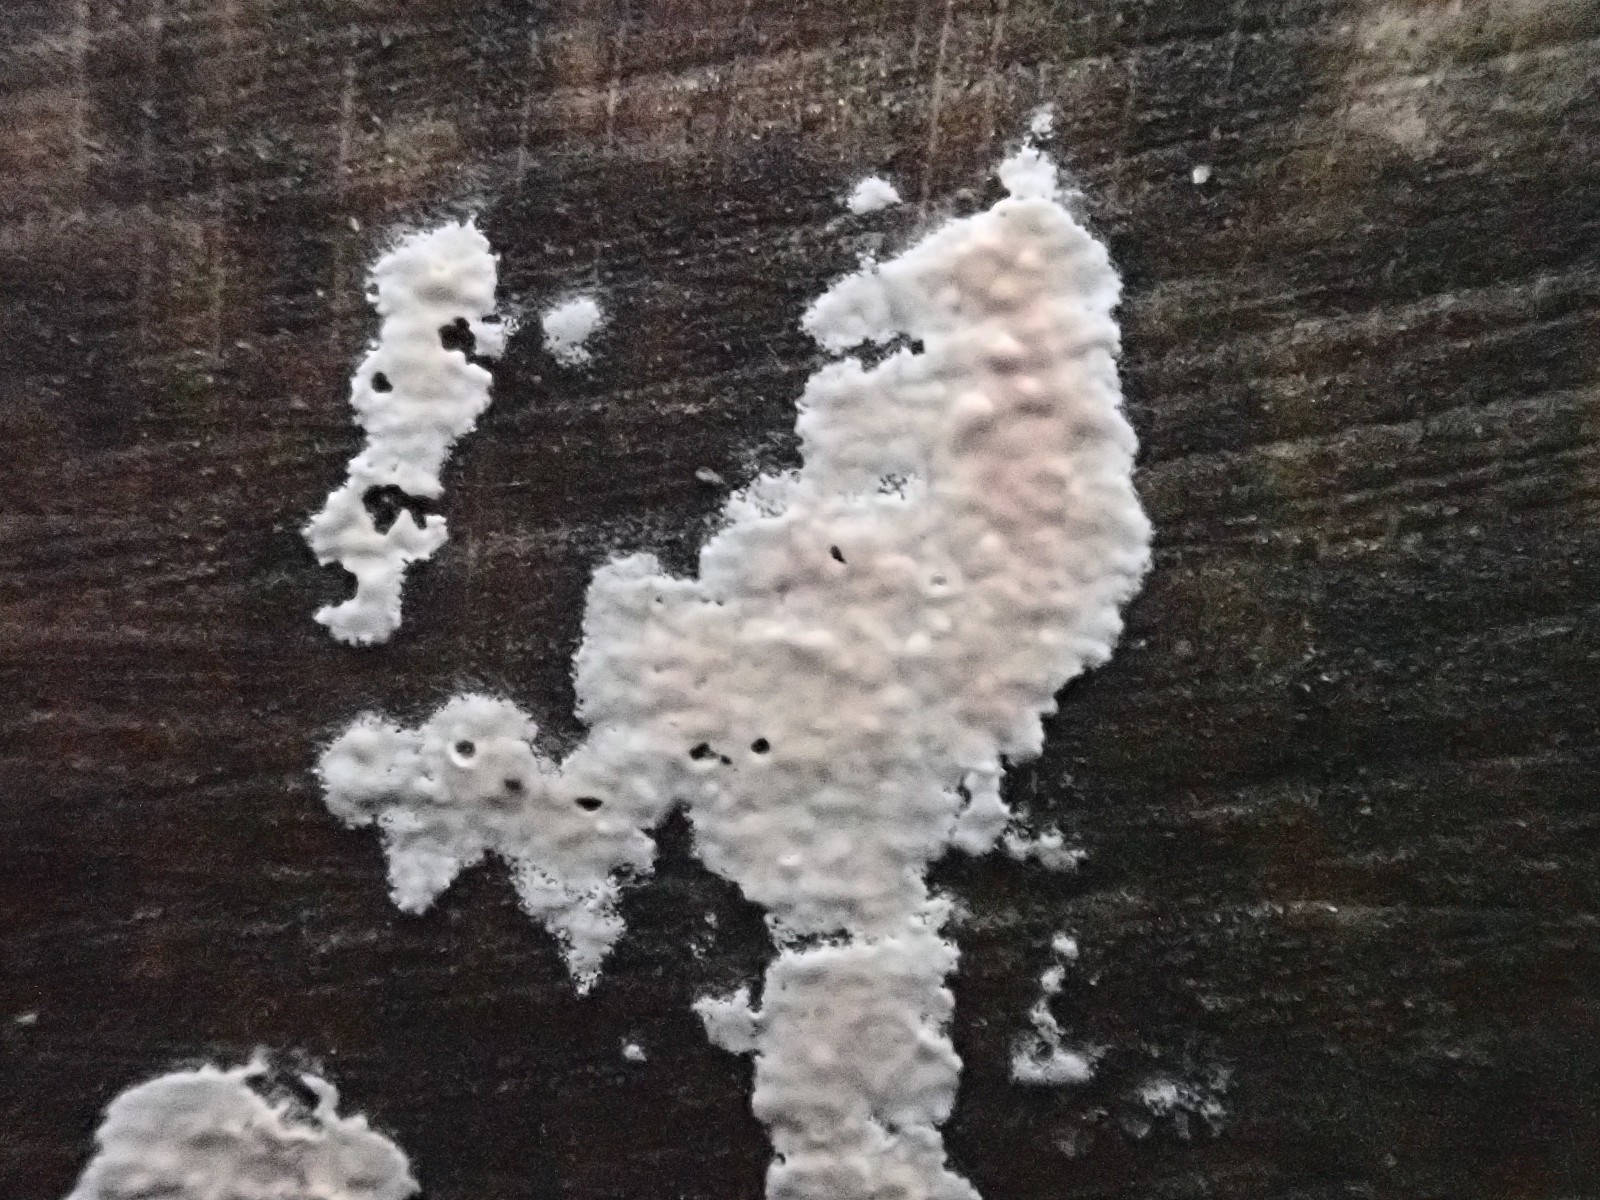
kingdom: Fungi
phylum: Basidiomycota
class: Agaricomycetes
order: Agaricales
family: Physalacriaceae
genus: Cylindrobasidium
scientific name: Cylindrobasidium evolvens
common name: sprækkehinde
